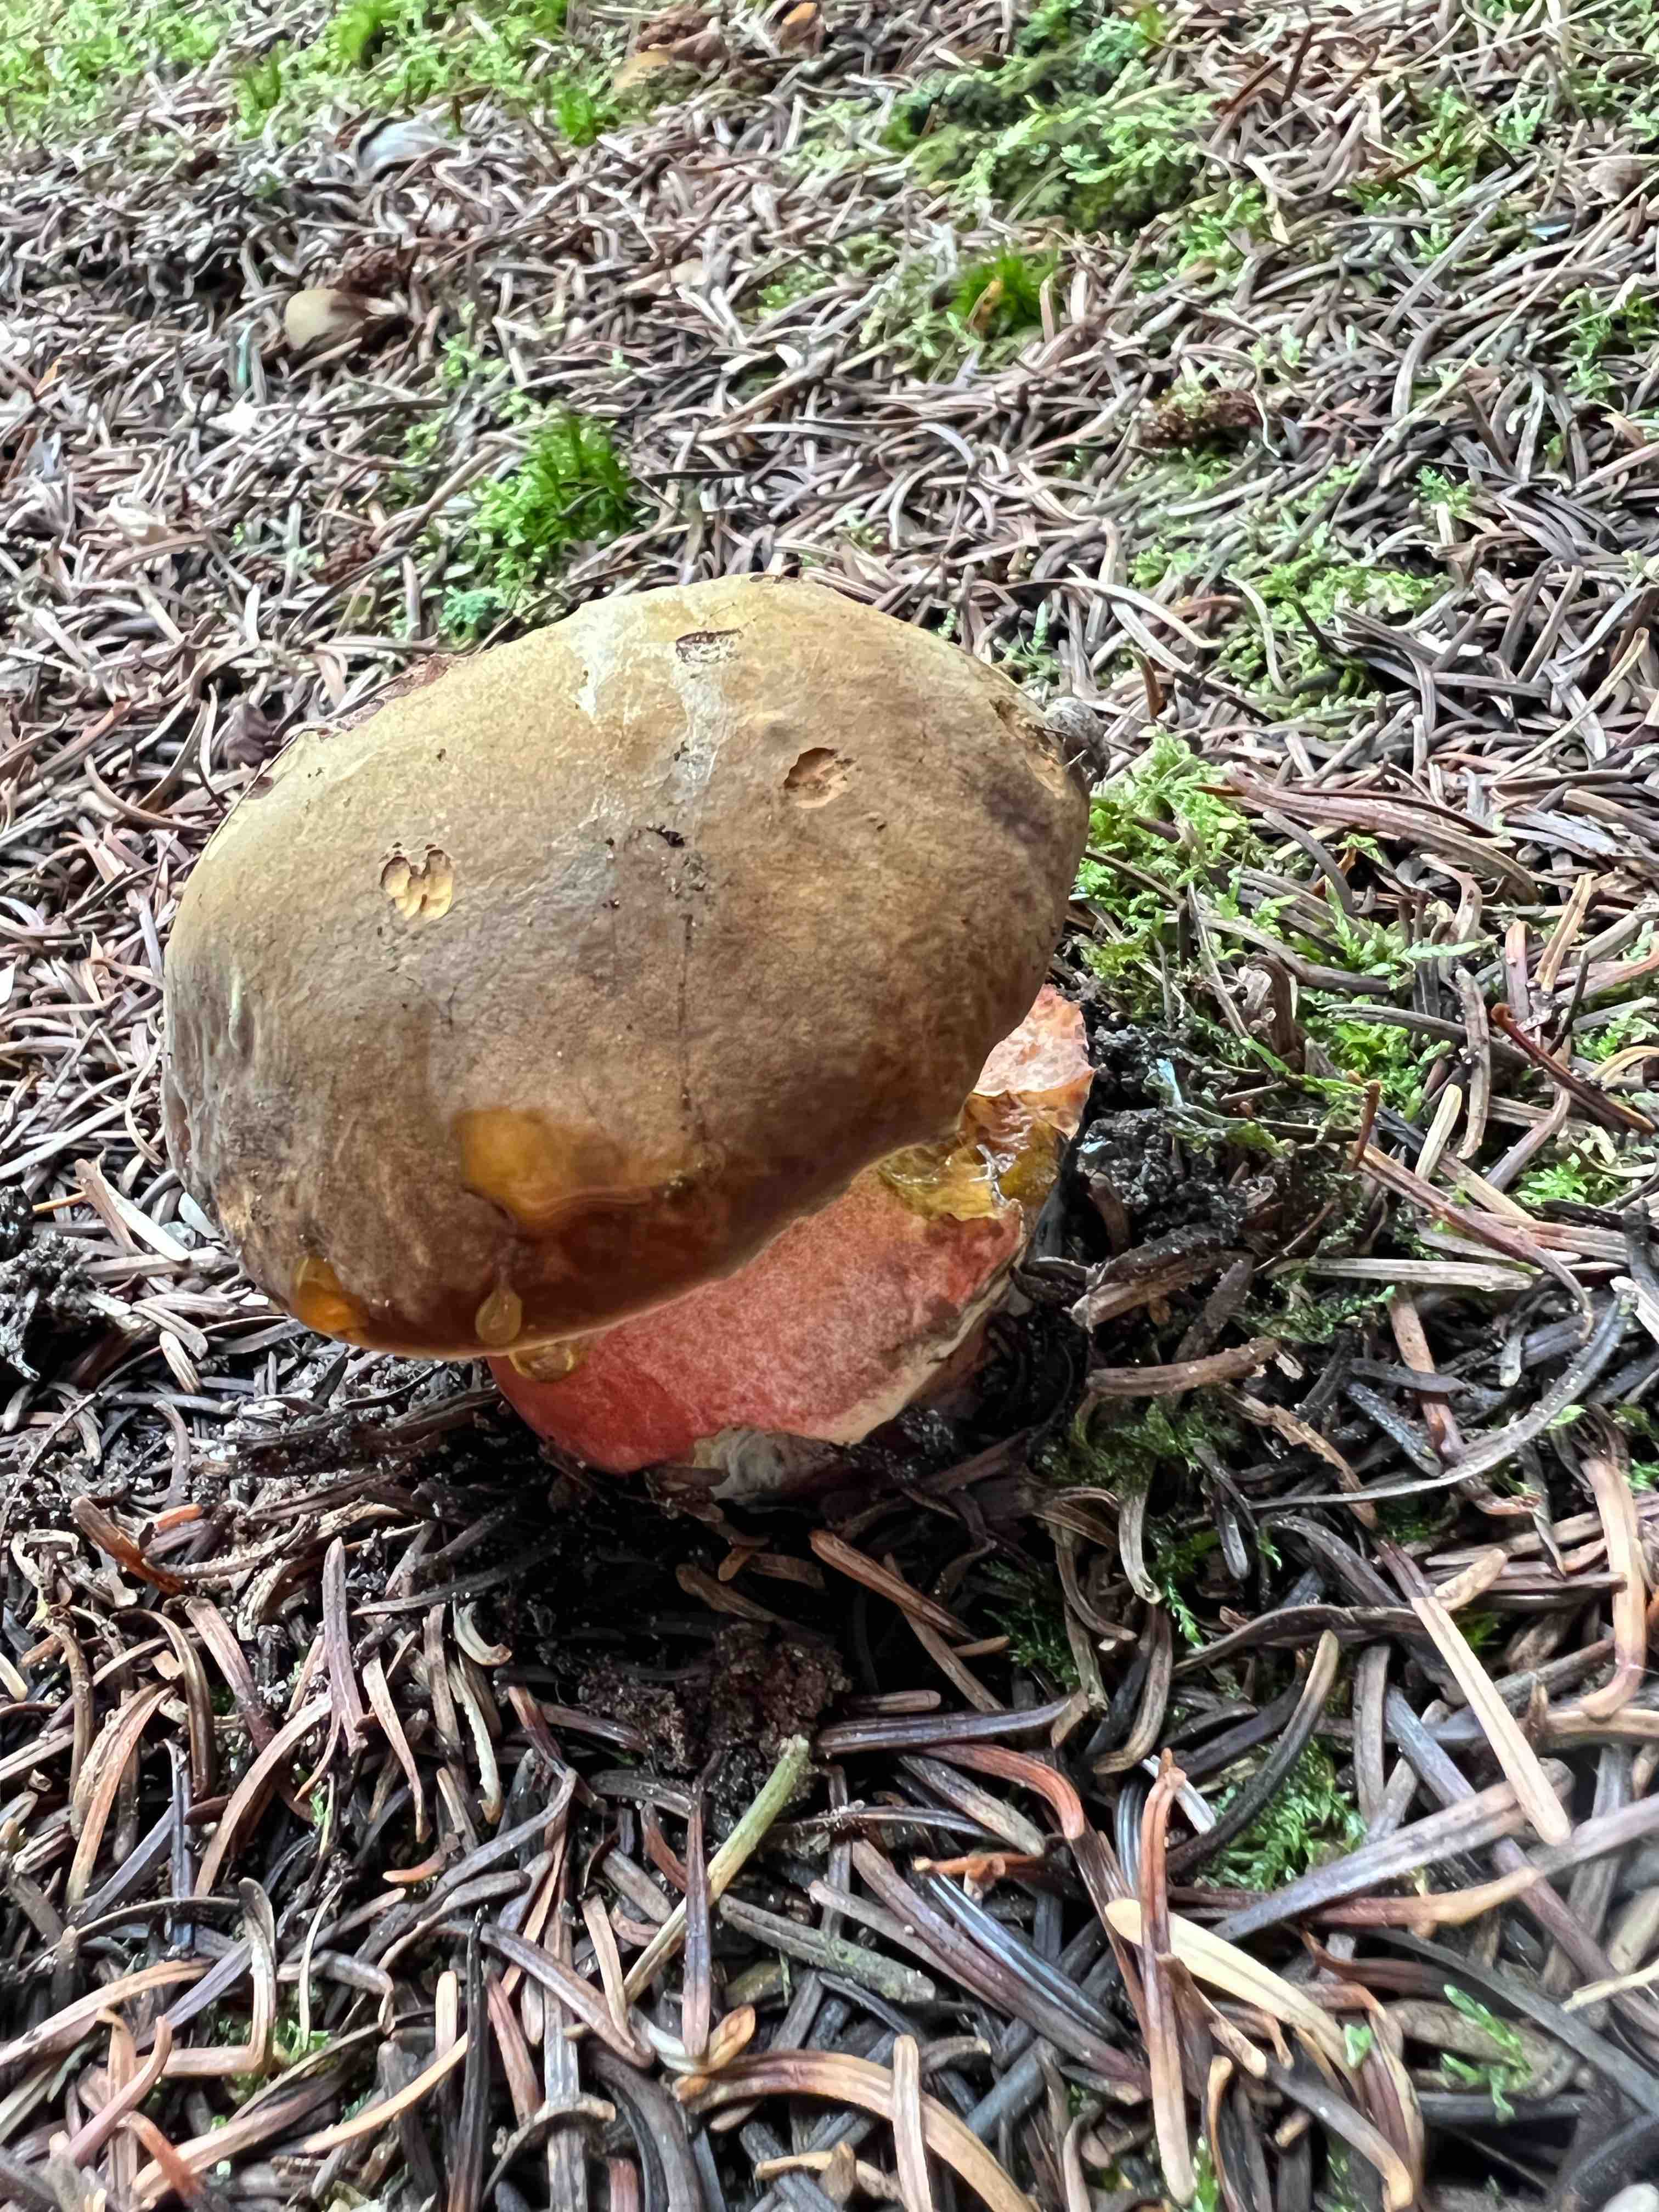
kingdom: Fungi
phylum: Basidiomycota
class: Agaricomycetes
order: Boletales
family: Boletaceae
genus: Neoboletus
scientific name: Neoboletus erythropus
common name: punktstokket indigorørhat
